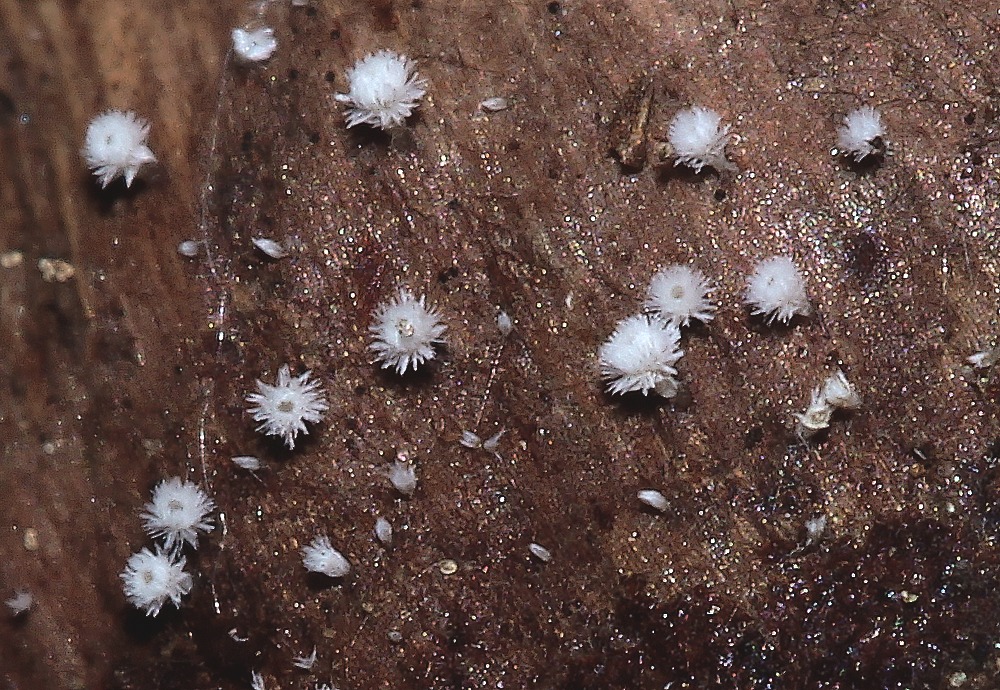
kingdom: Fungi
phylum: Ascomycota
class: Leotiomycetes
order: Helotiales
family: Lachnaceae
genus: Lachnum
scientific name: Lachnum
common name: frynseskive
